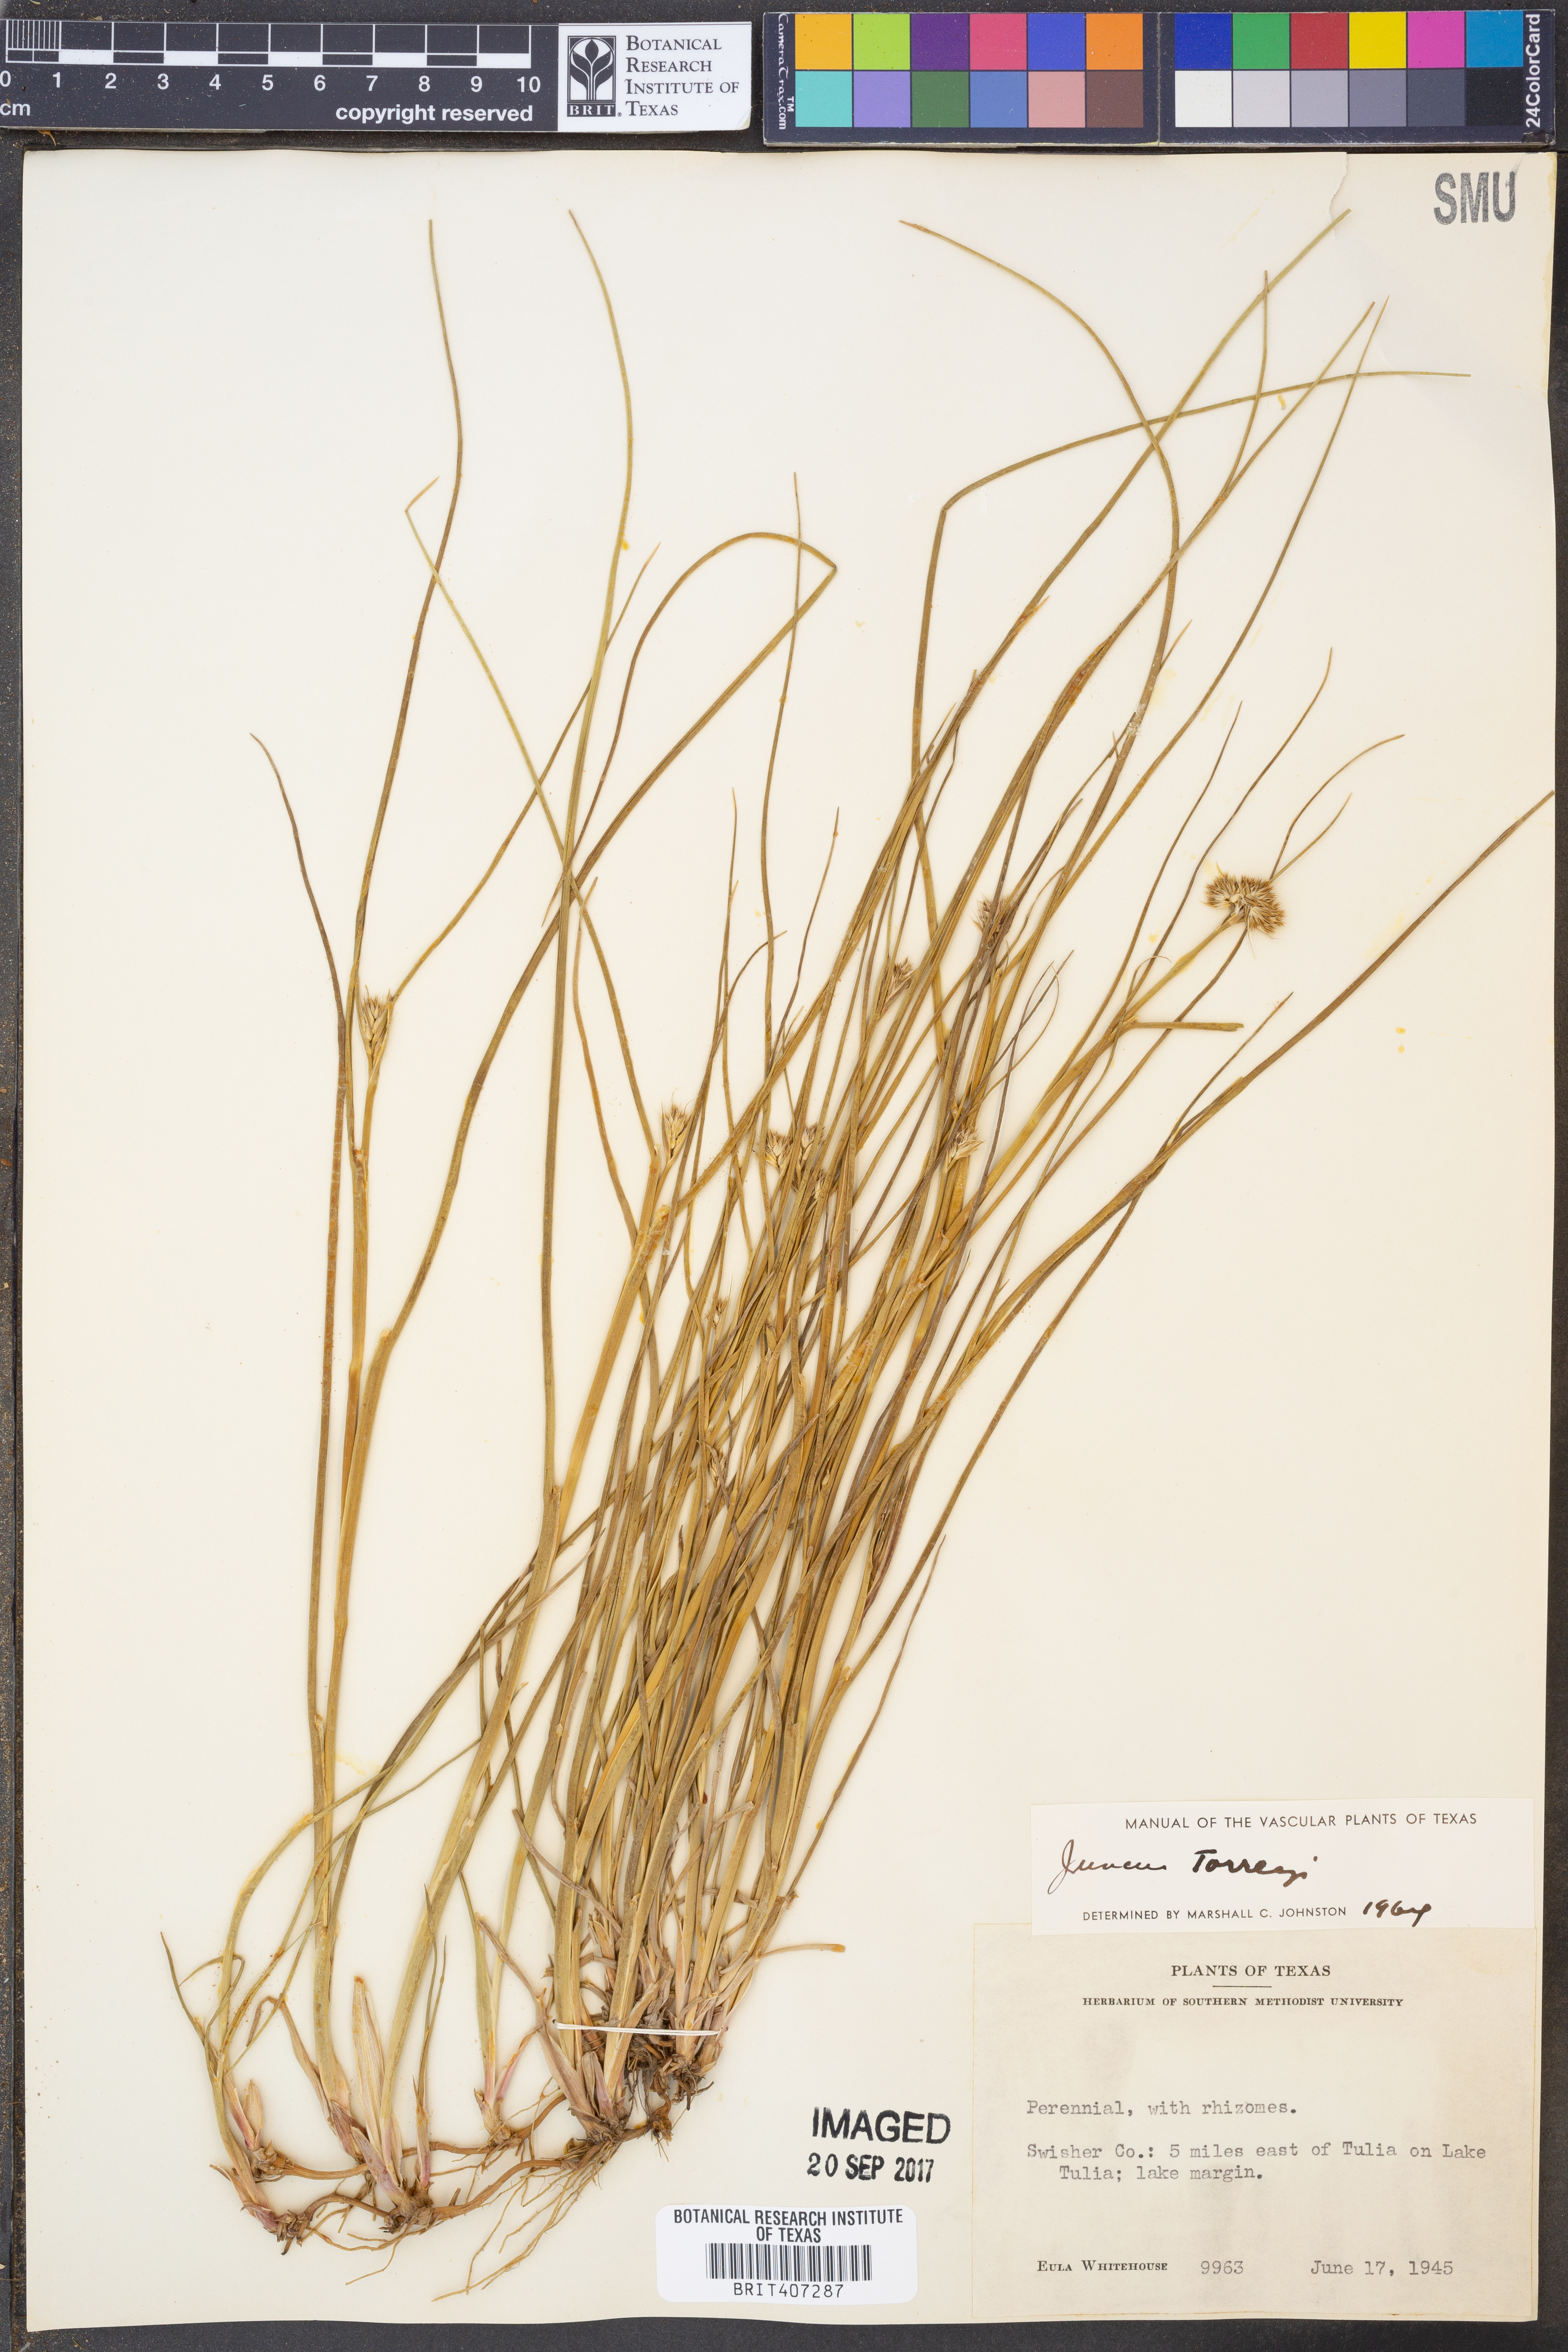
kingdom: Plantae
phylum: Tracheophyta
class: Liliopsida
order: Poales
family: Juncaceae
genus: Juncus
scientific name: Juncus torreyi
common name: Torrey's rush
